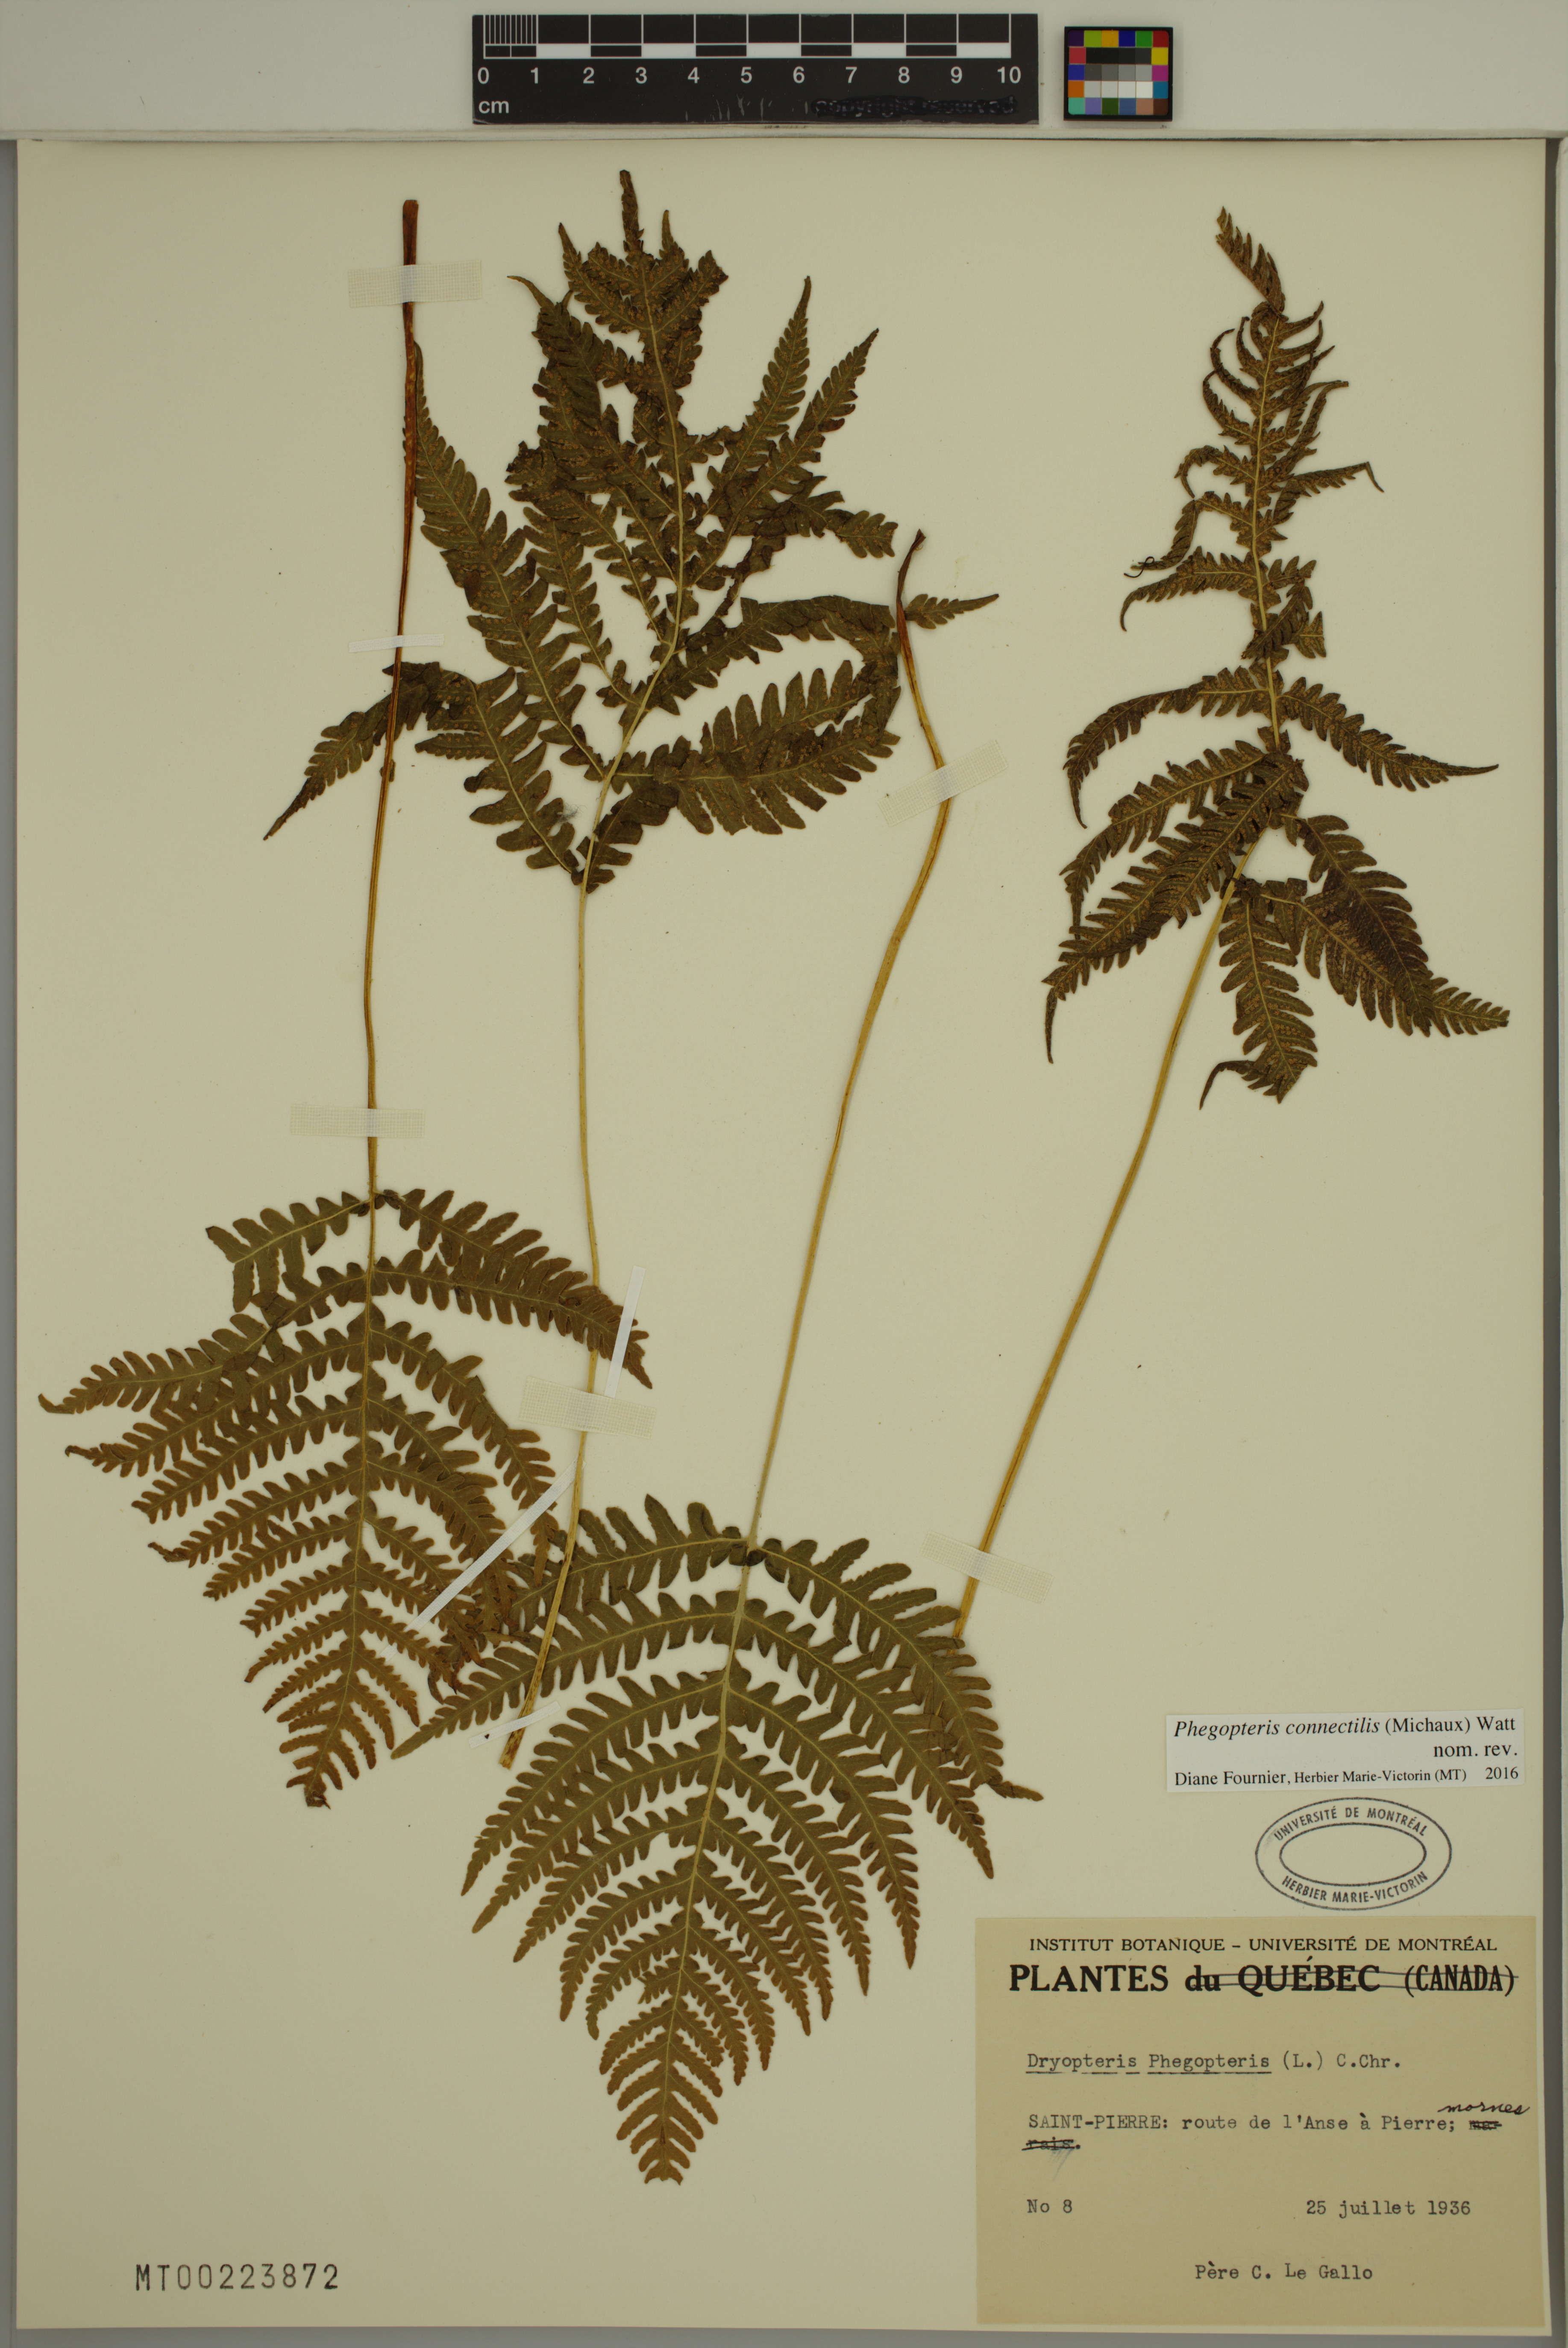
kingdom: Plantae
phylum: Tracheophyta
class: Polypodiopsida
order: Polypodiales
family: Thelypteridaceae
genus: Phegopteris
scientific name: Phegopteris connectilis
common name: Beech fern
